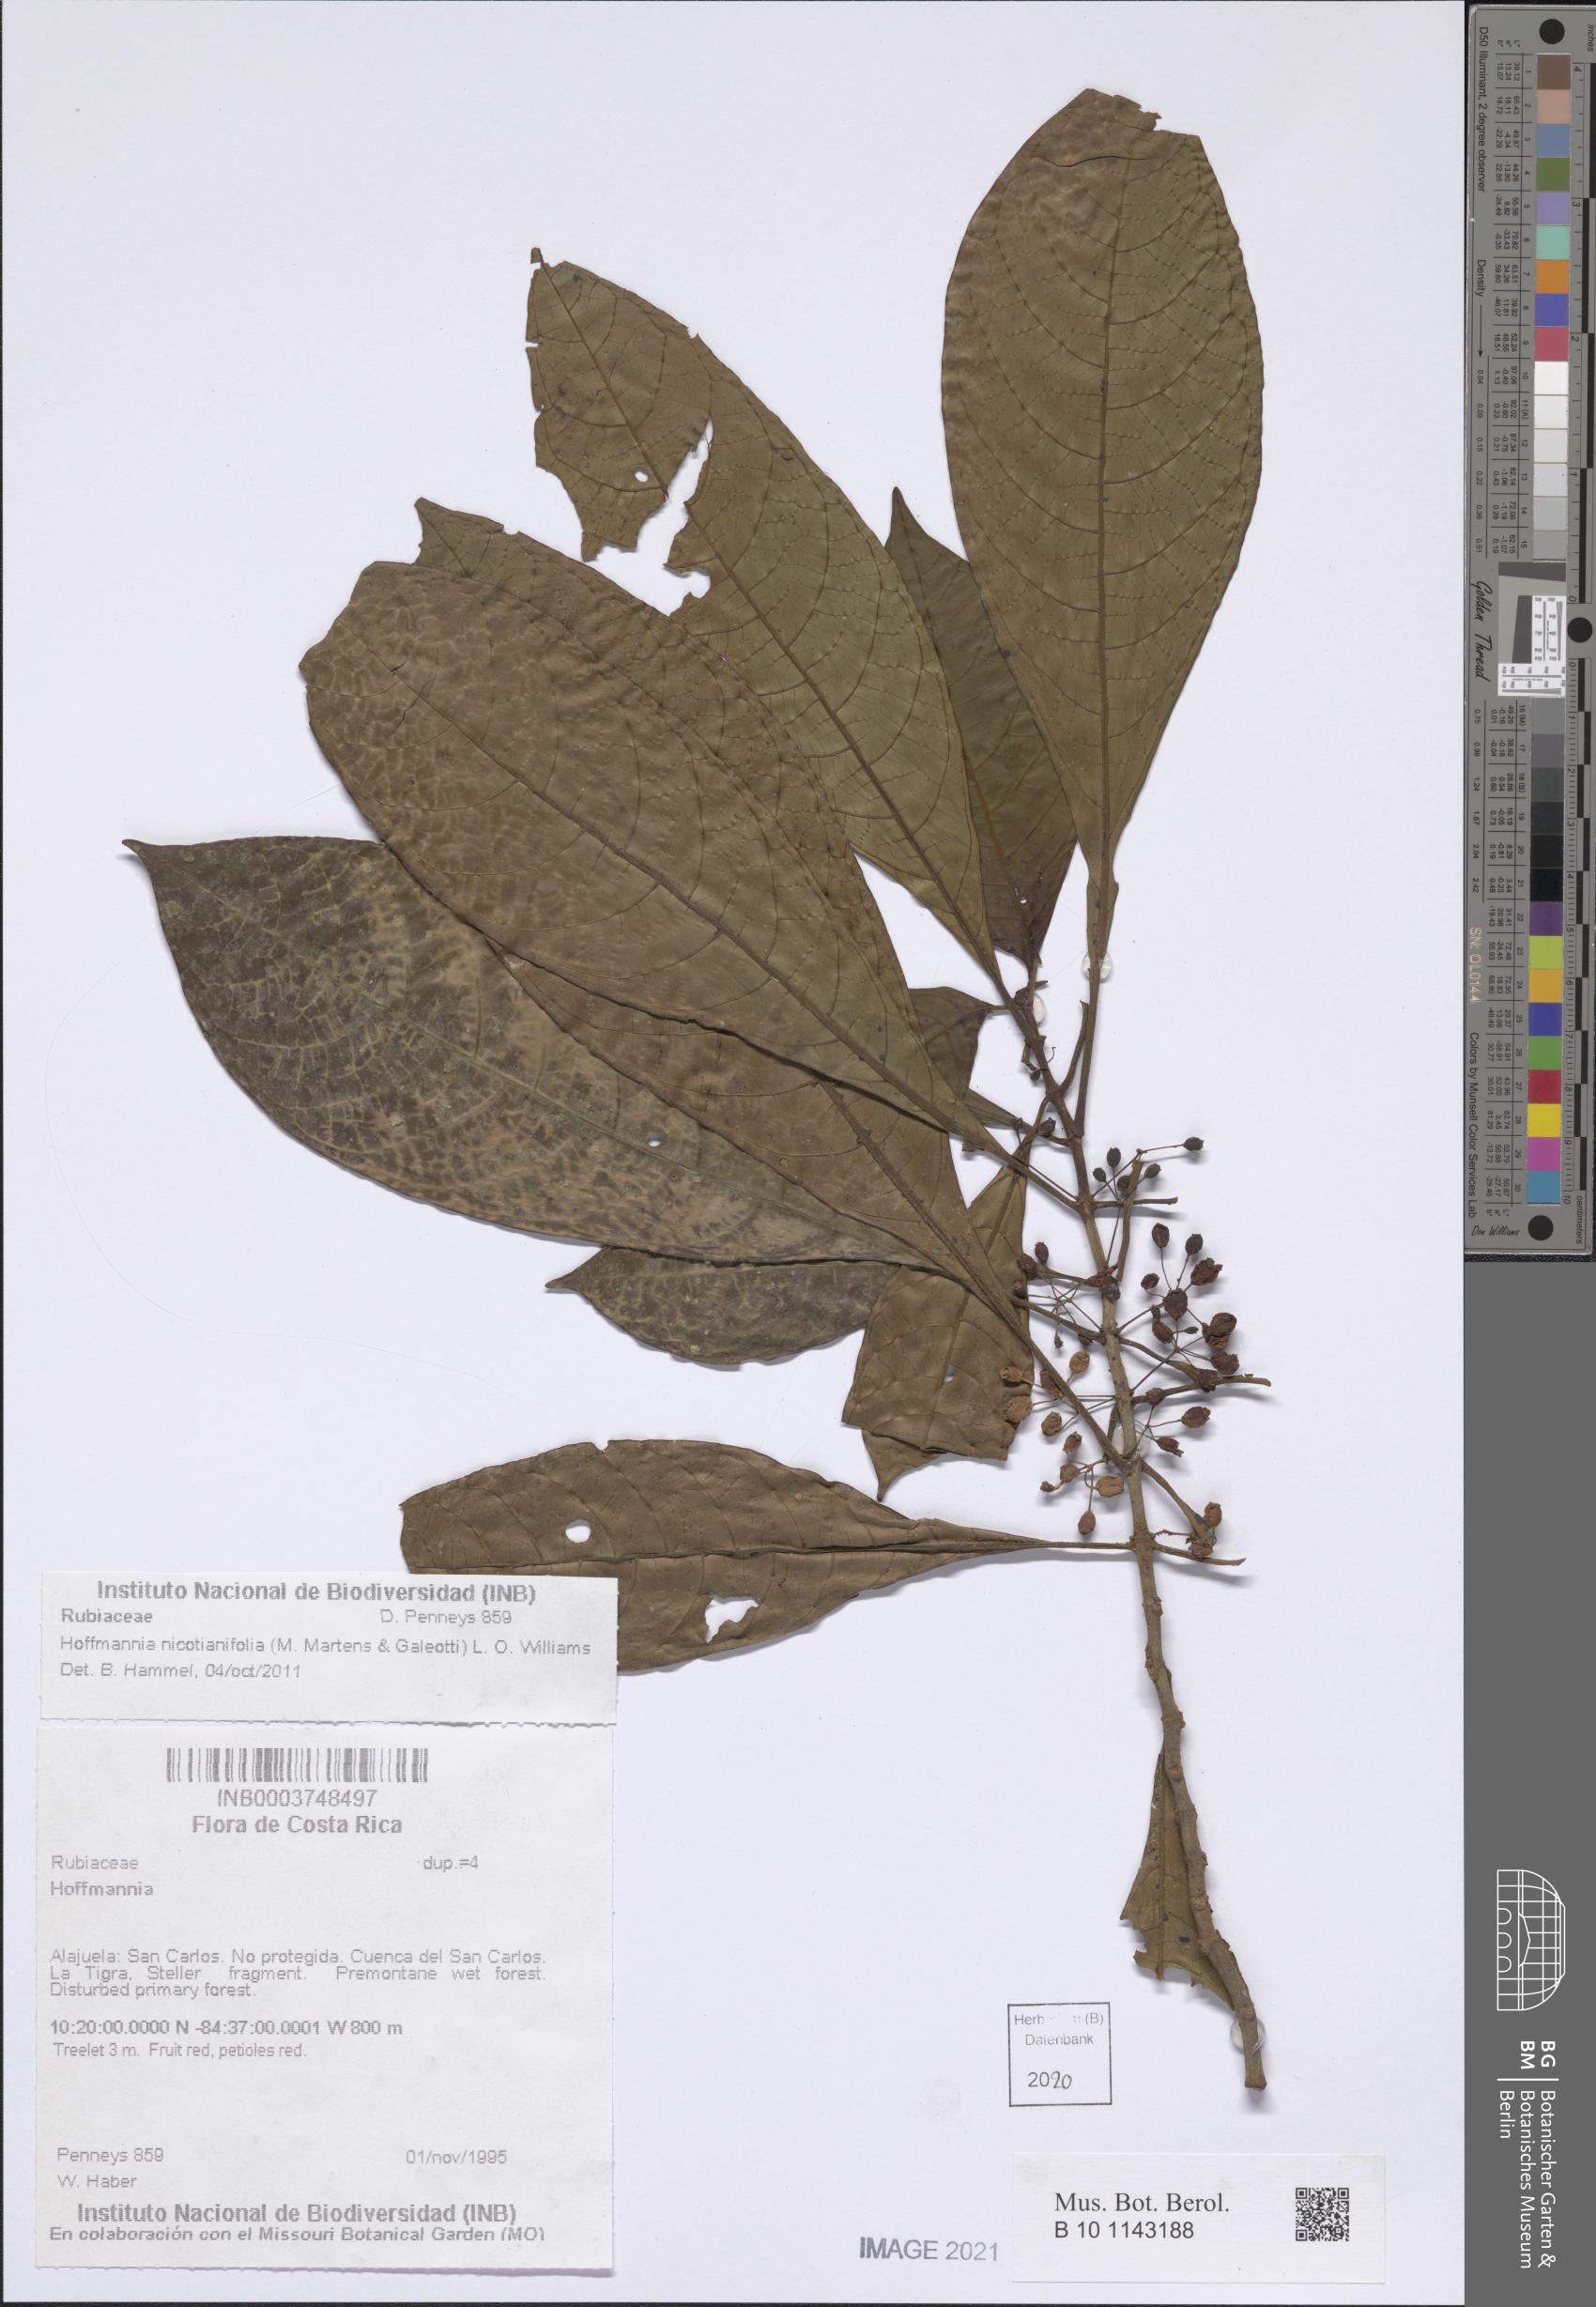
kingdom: Plantae
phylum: Tracheophyta
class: Magnoliopsida
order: Gentianales
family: Rubiaceae
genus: Hoffmannia
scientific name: Hoffmannia nicotianifolia
